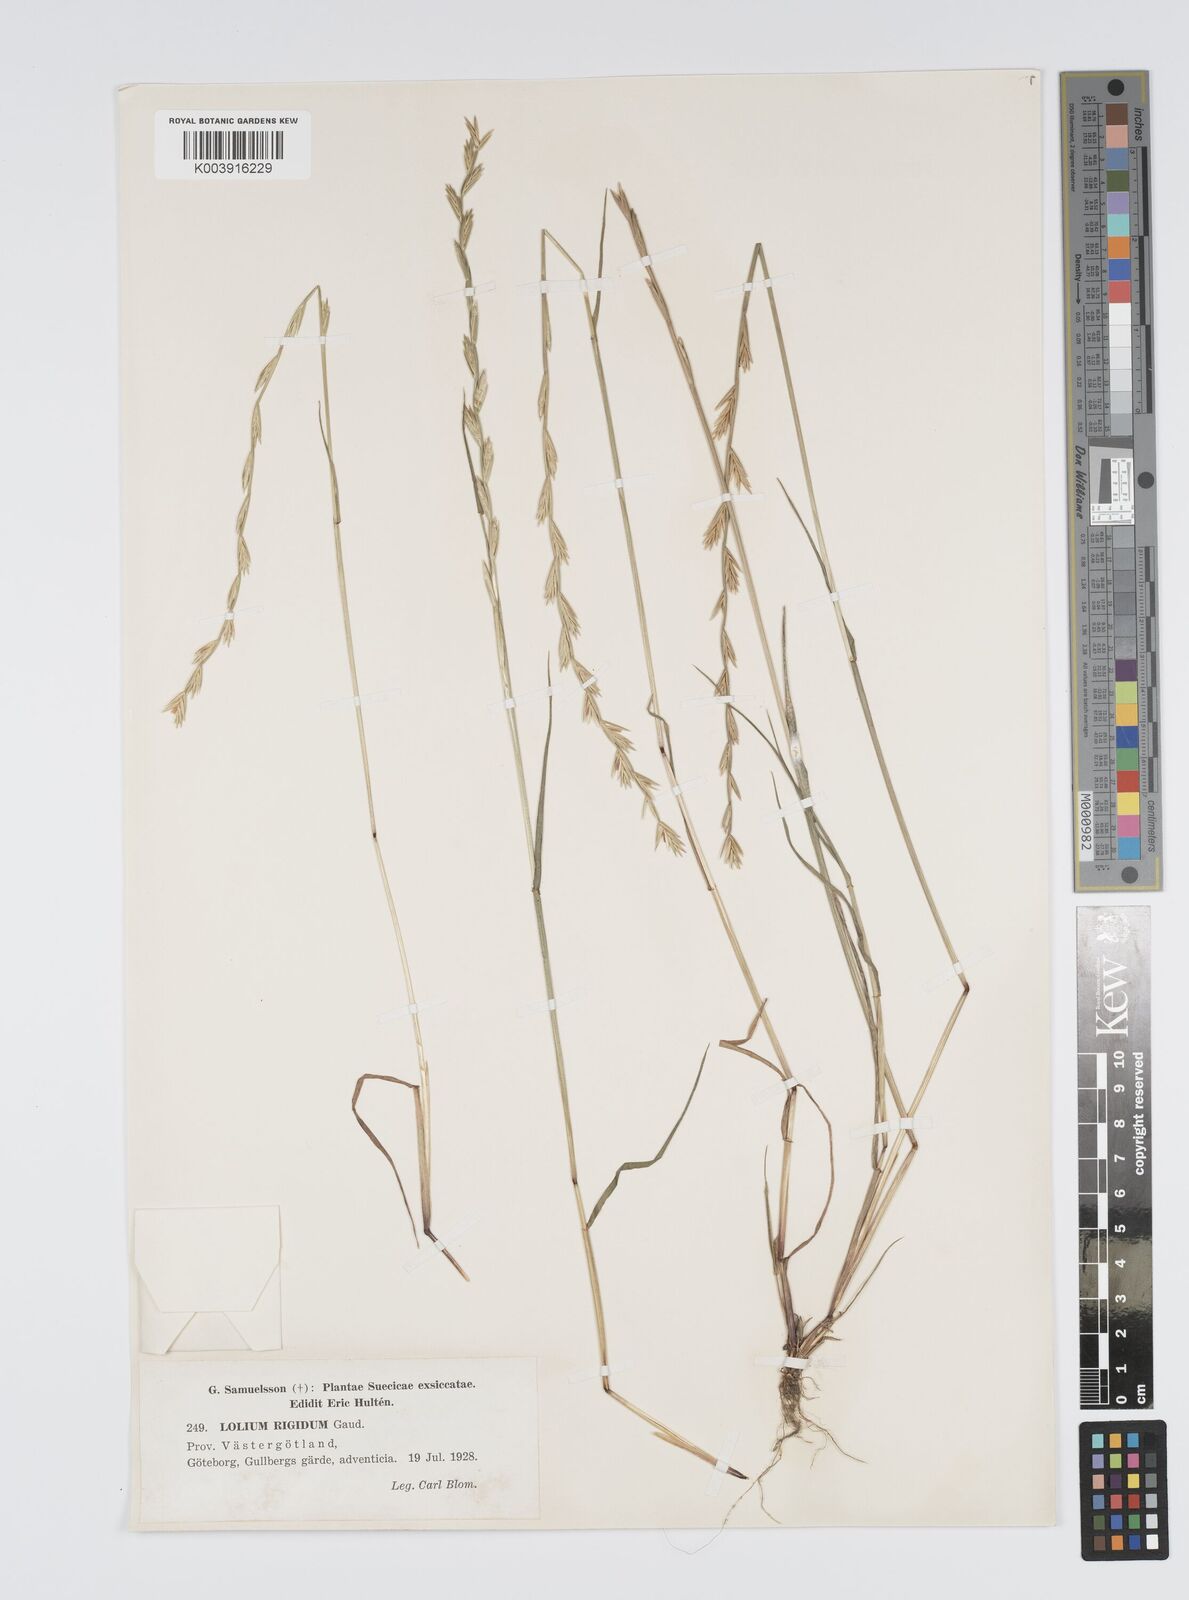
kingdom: Plantae
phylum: Tracheophyta
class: Liliopsida
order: Poales
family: Poaceae
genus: Lolium
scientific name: Lolium rigidum
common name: Wimmera ryegrass
